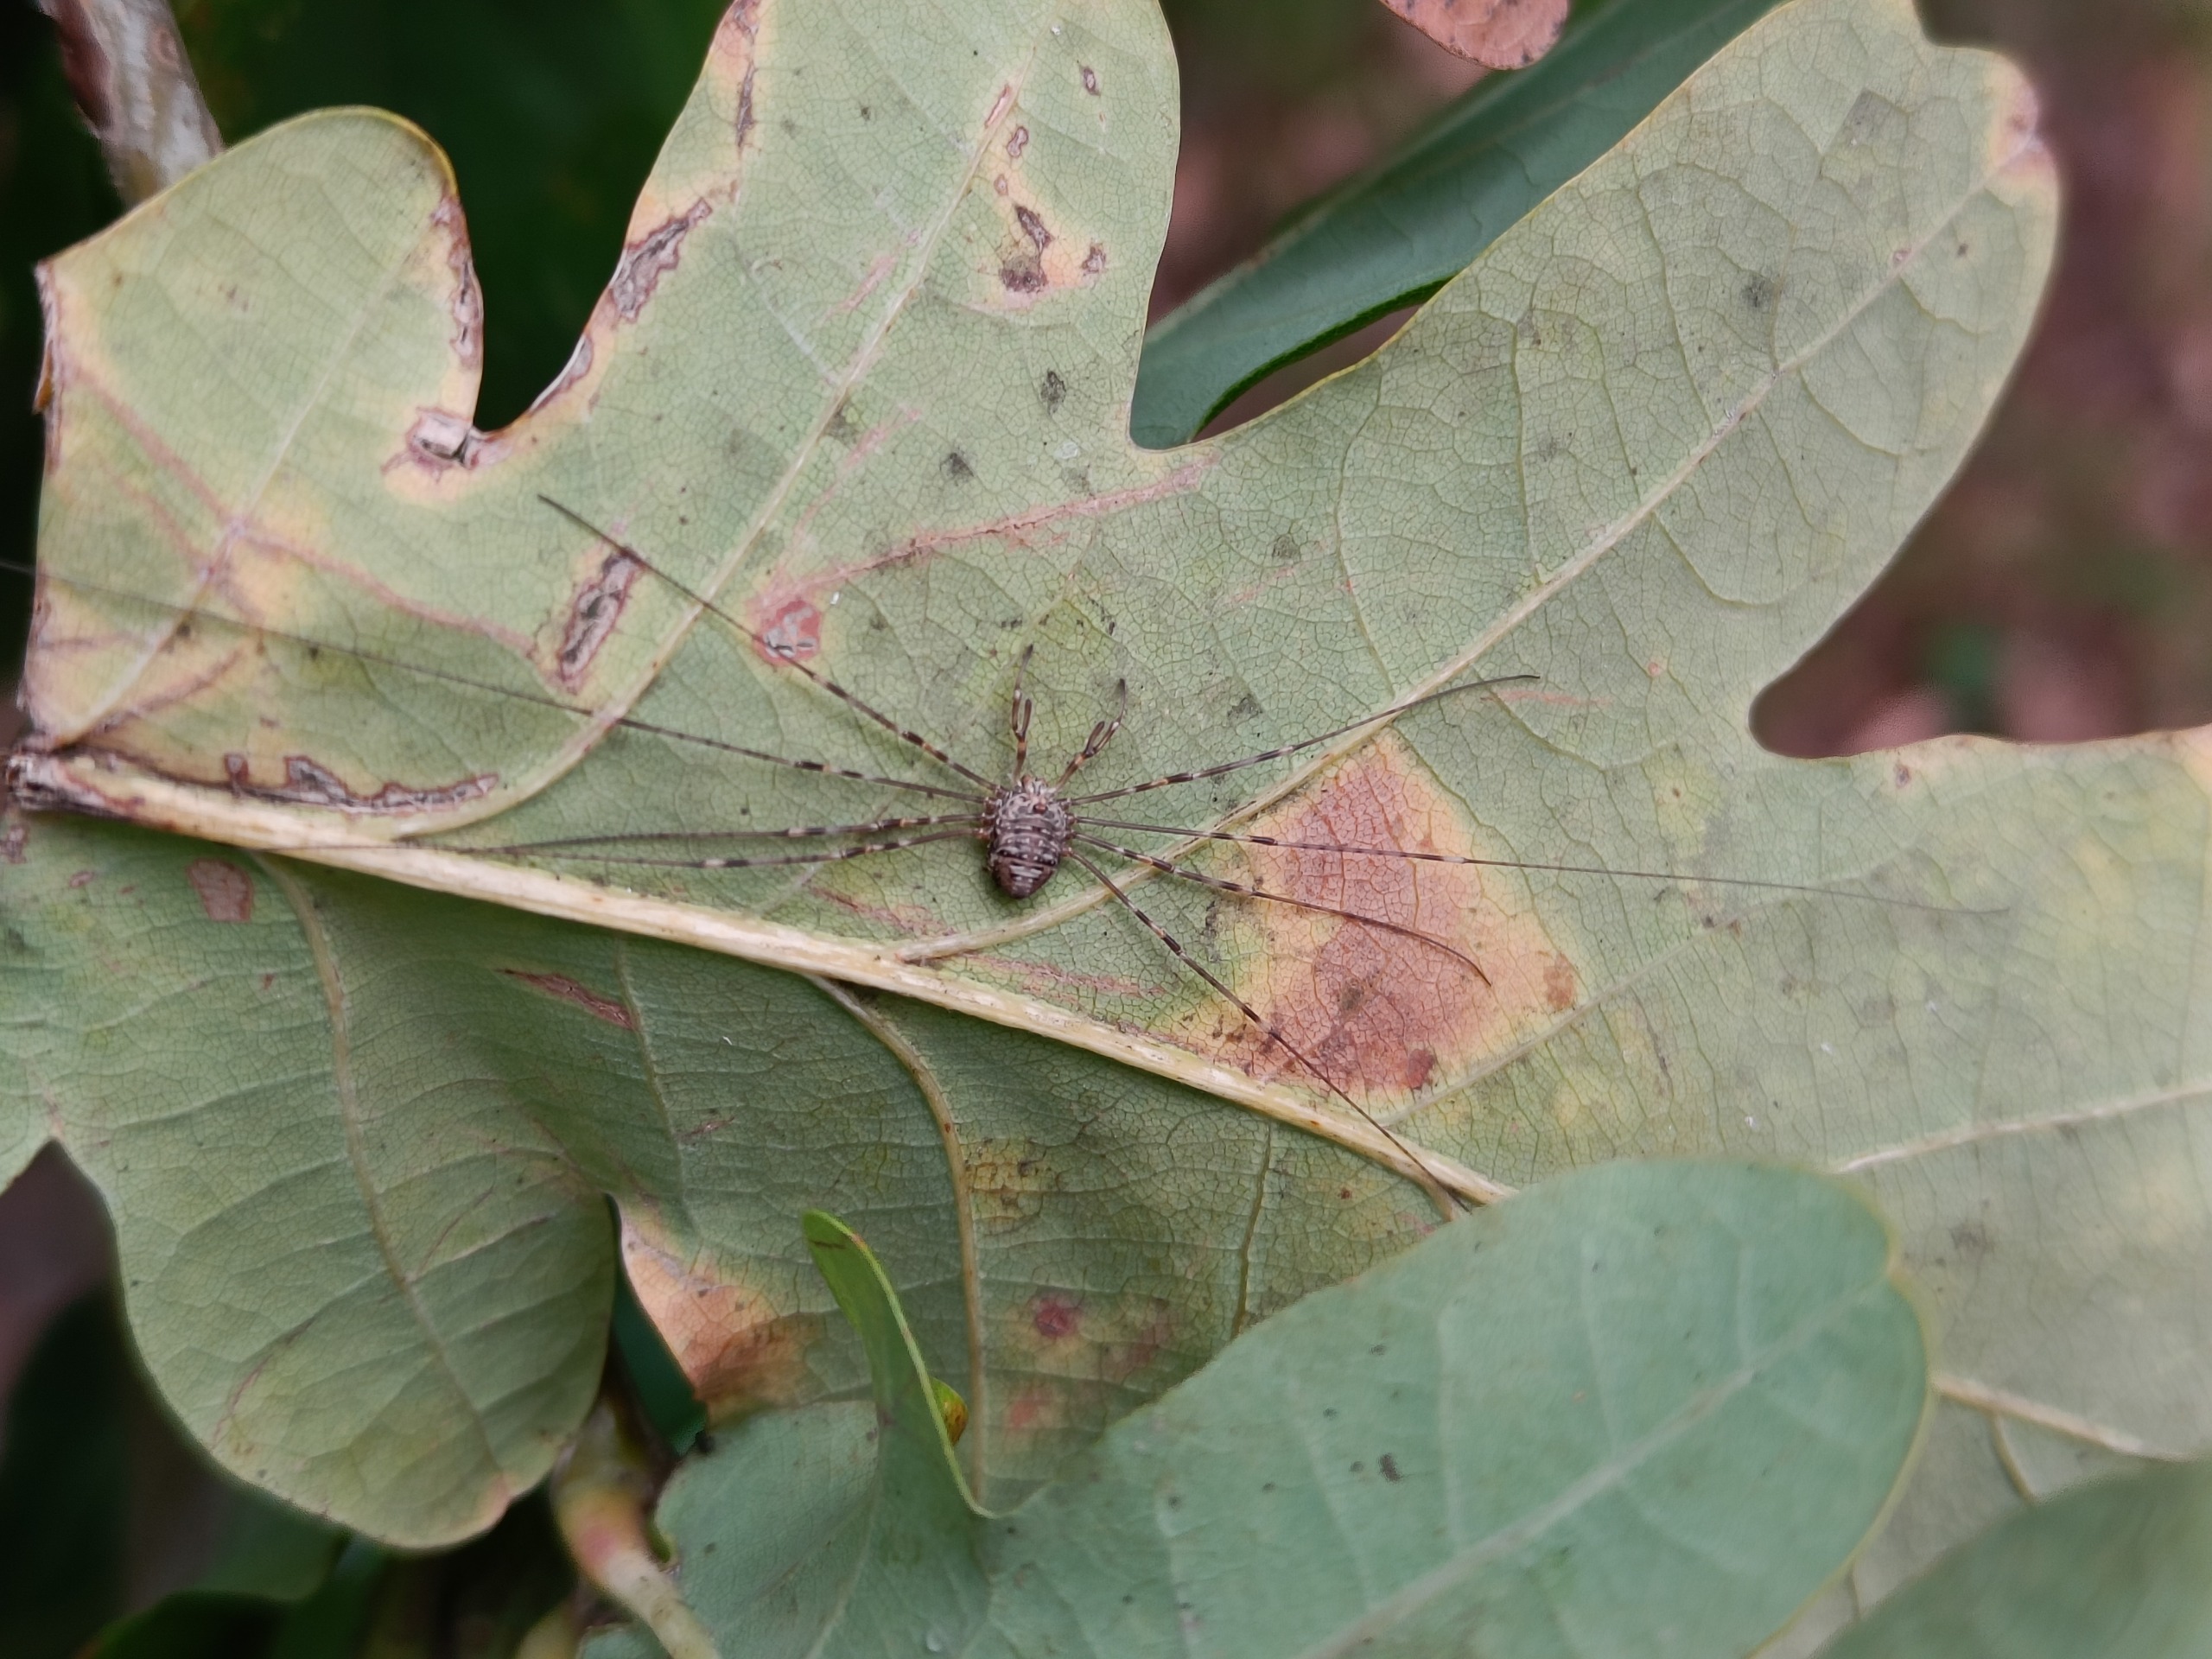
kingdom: Animalia
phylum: Arthropoda
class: Arachnida
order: Opiliones
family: Phalangiidae
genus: Dicranopalpus
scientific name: Dicranopalpus ramosus
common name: Gaffelmejer
